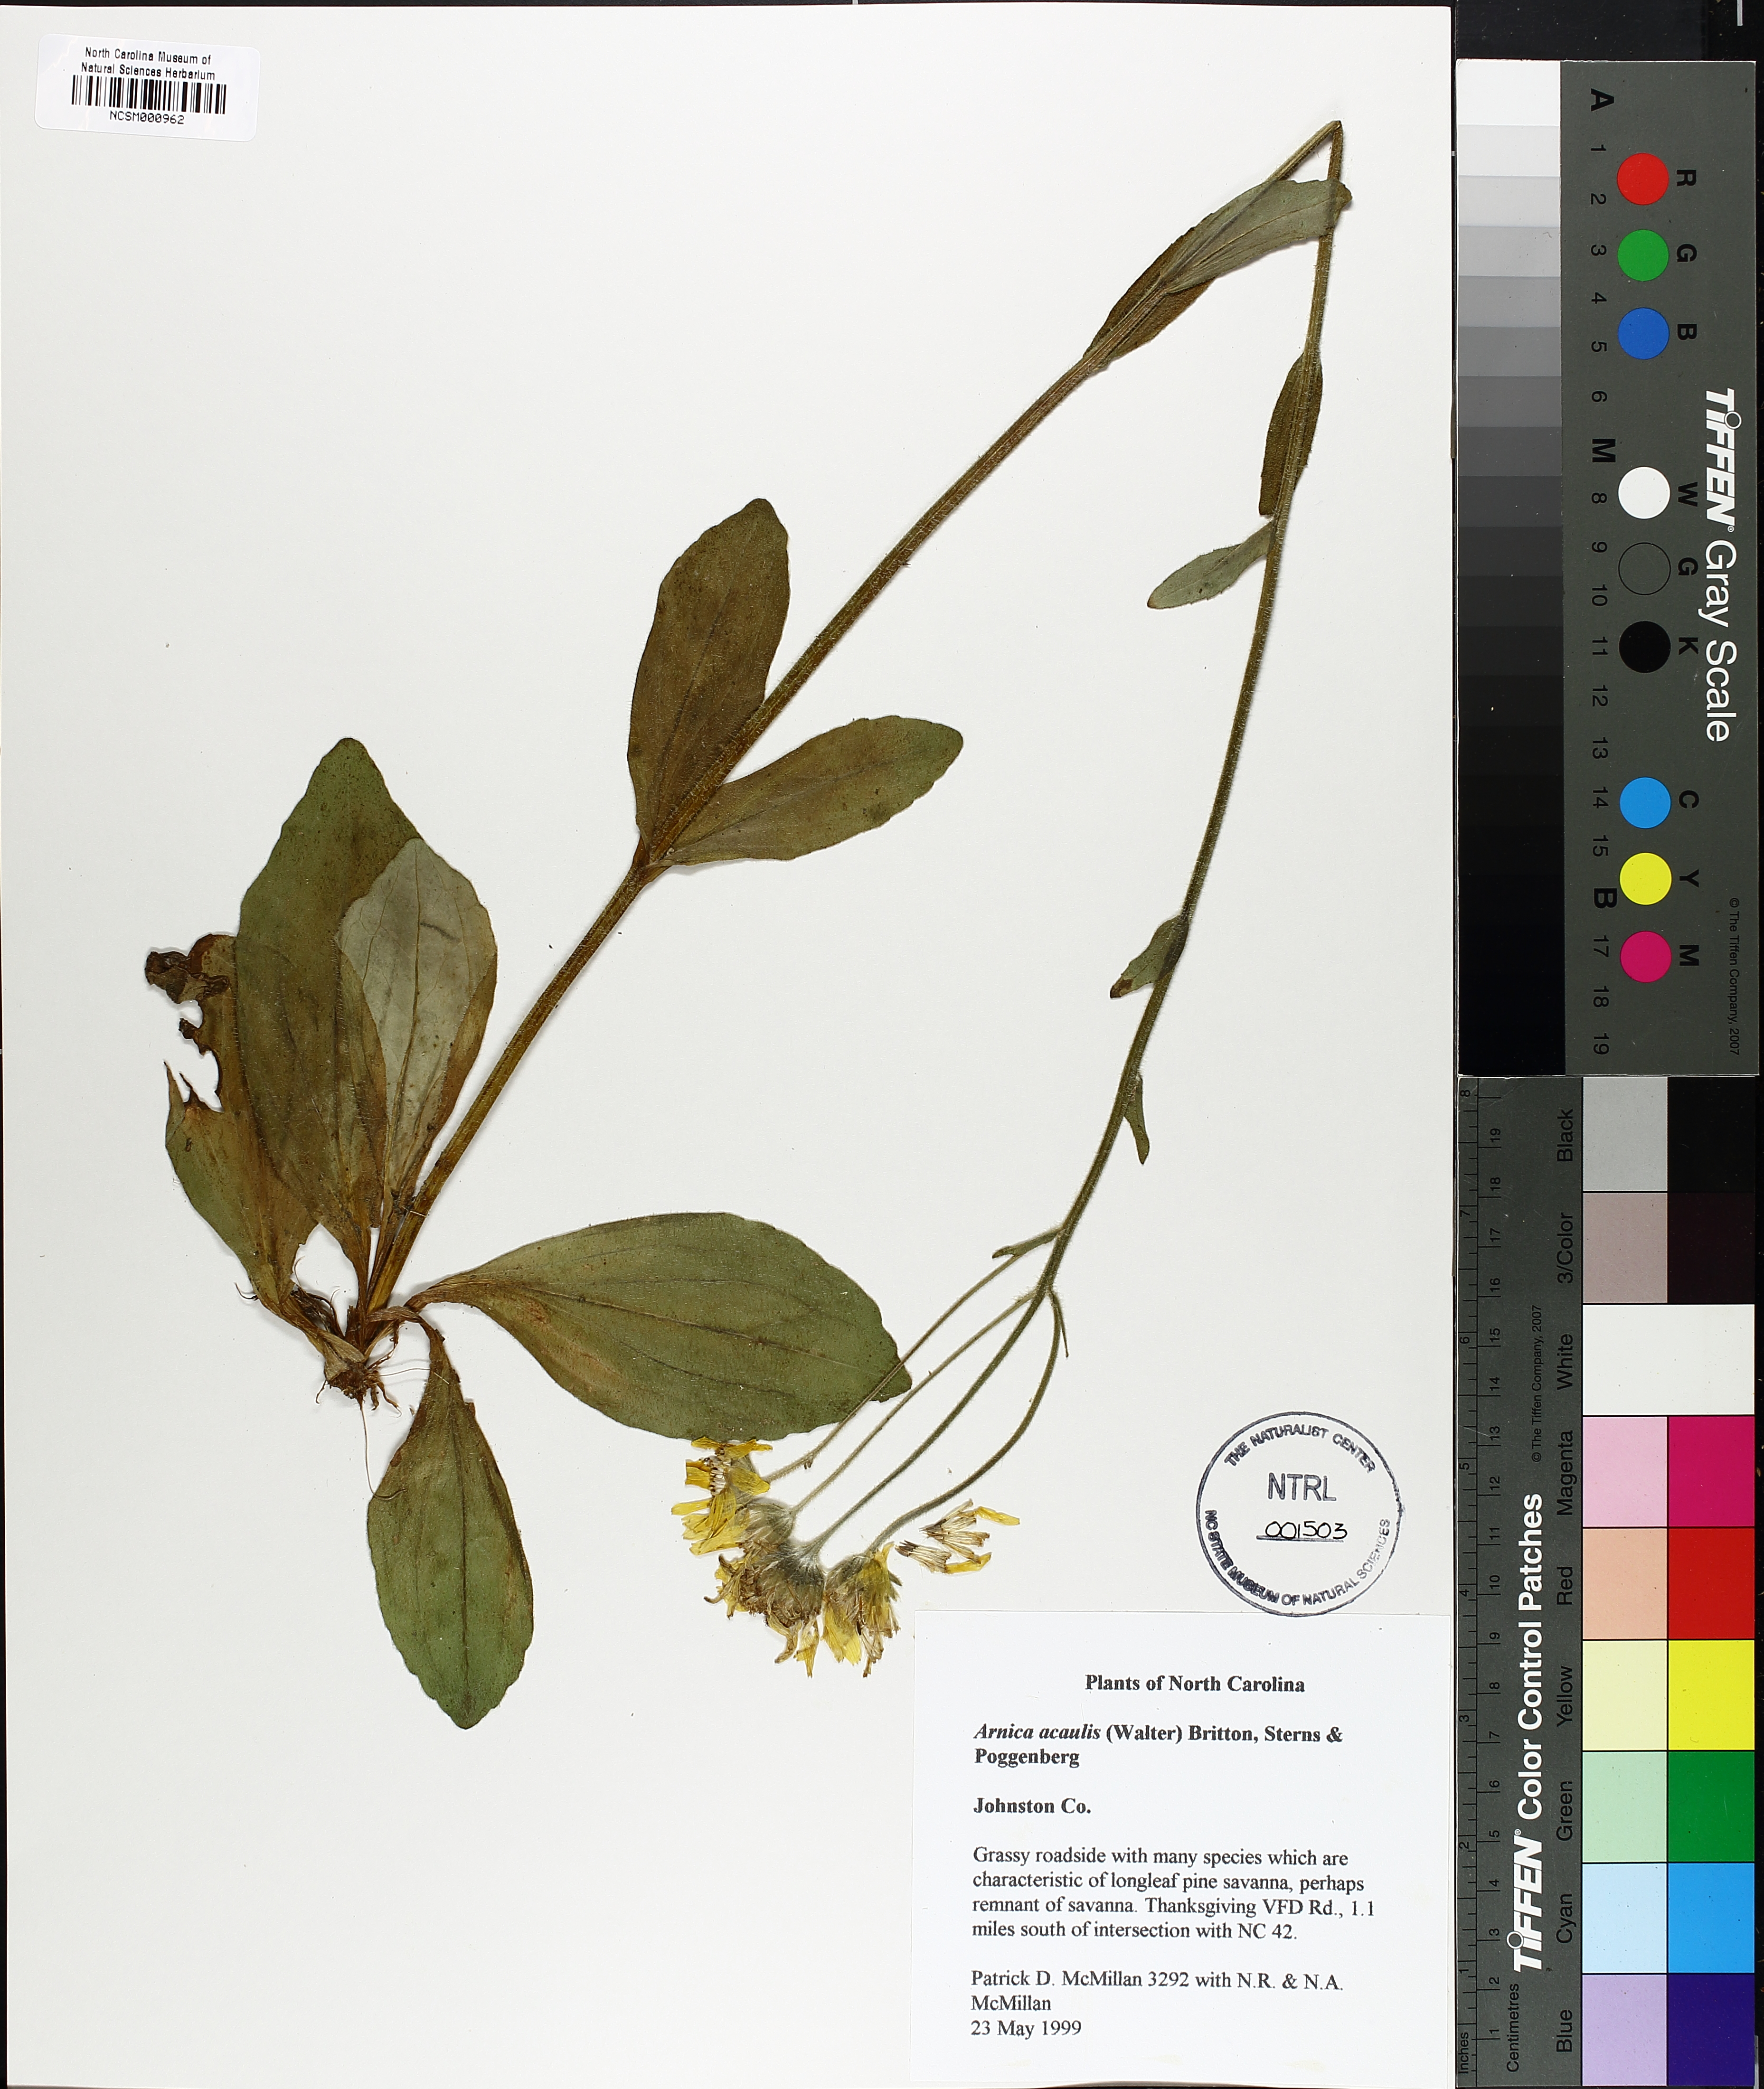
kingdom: Plantae
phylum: Tracheophyta
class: Magnoliopsida
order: Asterales
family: Asteraceae
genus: Arnica
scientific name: Arnica acaulis
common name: Common leopardbane
